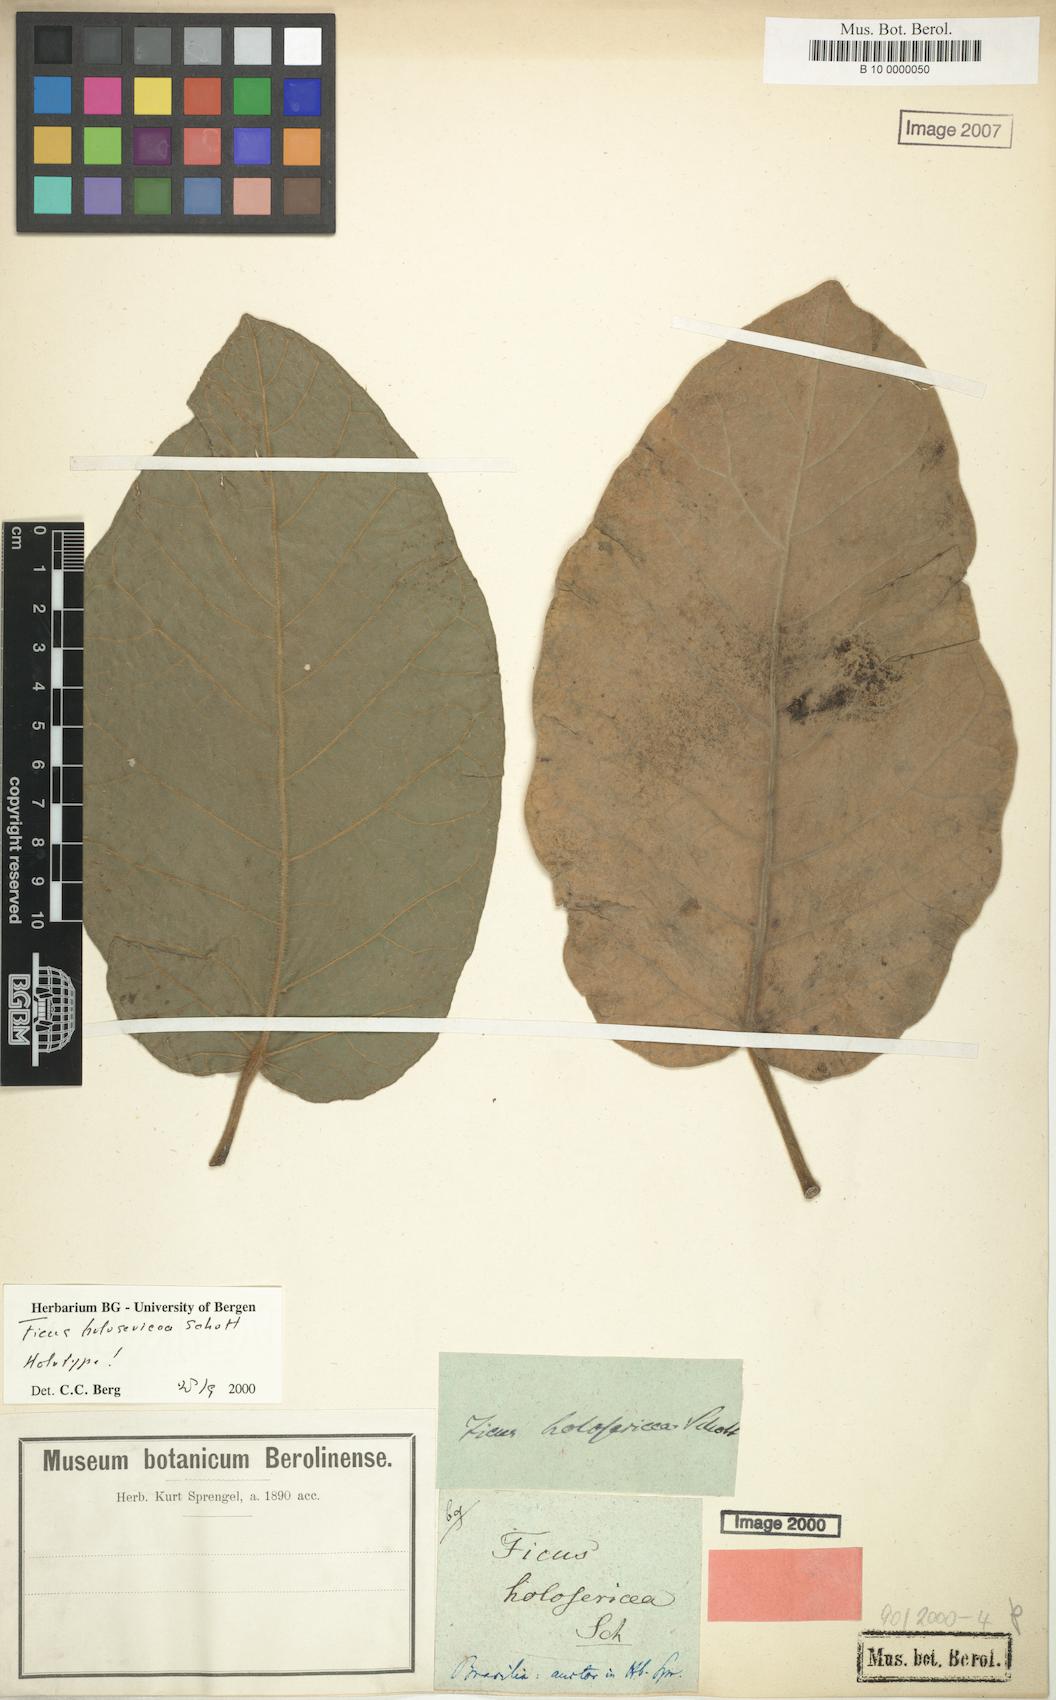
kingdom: Plantae
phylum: Tracheophyta
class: Magnoliopsida
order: Rosales
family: Moraceae
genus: Ficus
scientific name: Ficus holosericea
